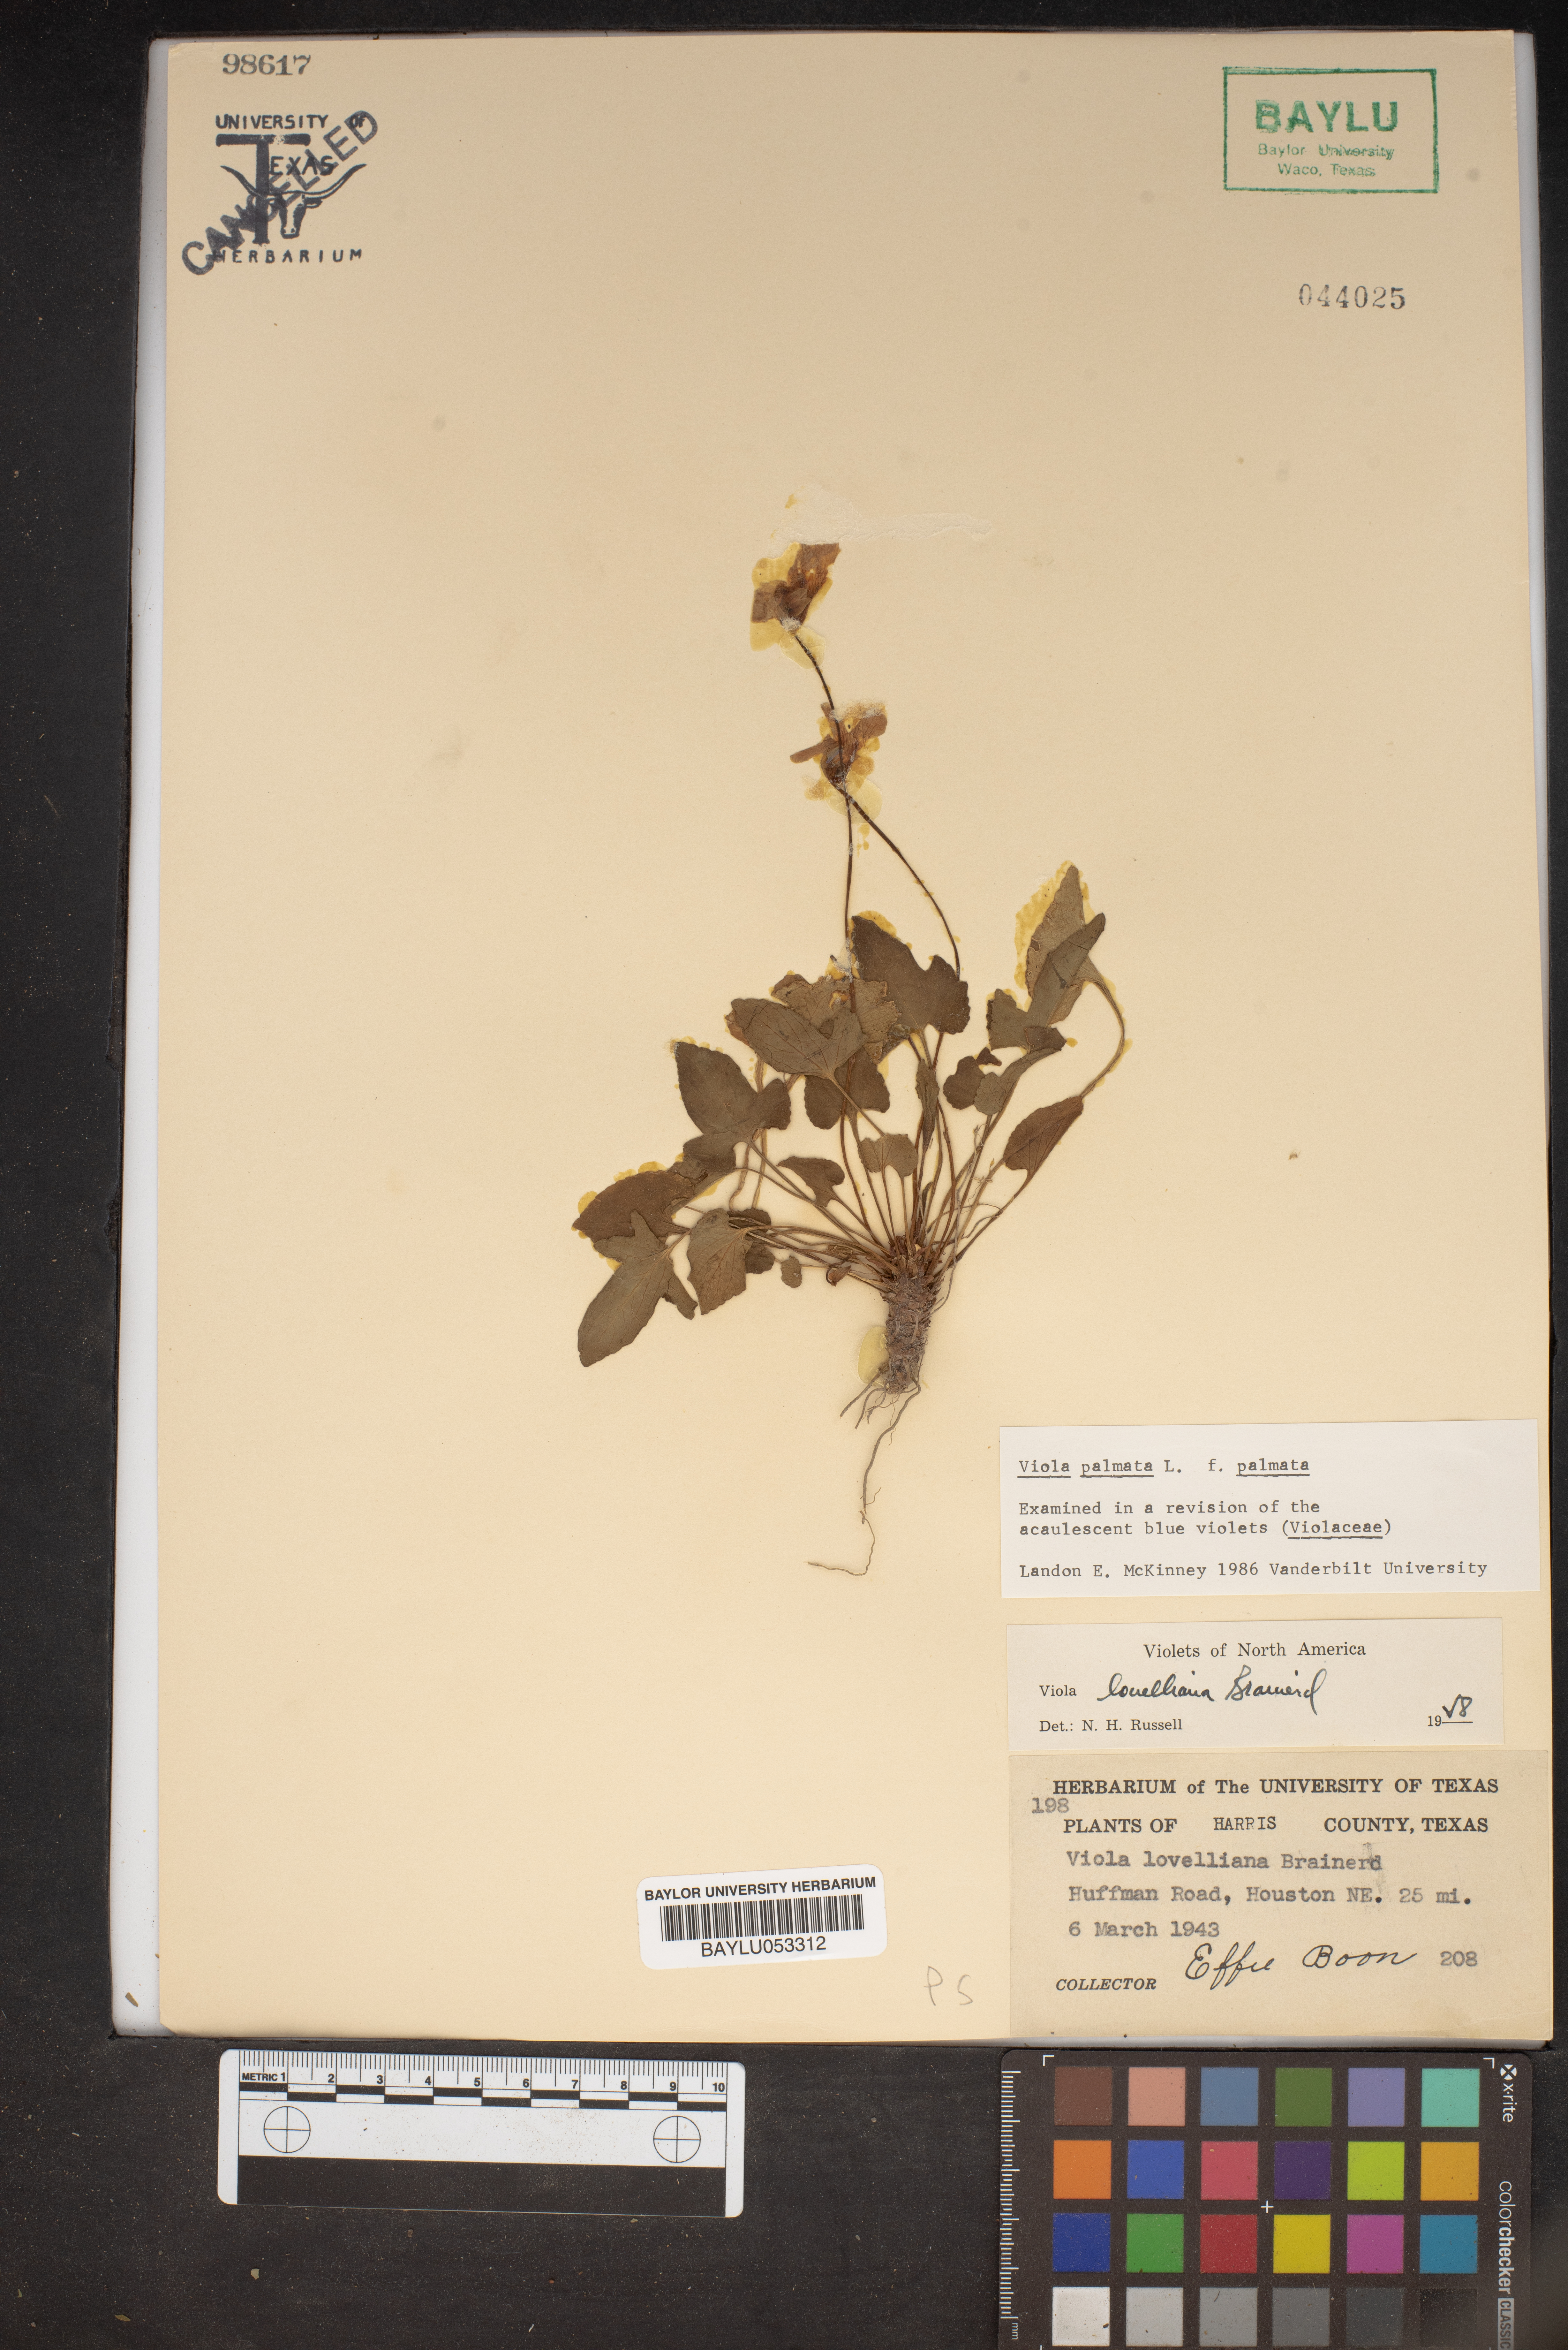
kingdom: Plantae
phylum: Tracheophyta
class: Magnoliopsida
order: Malpighiales
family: Violaceae
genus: Viola
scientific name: Viola palmata
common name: Early blue violet
